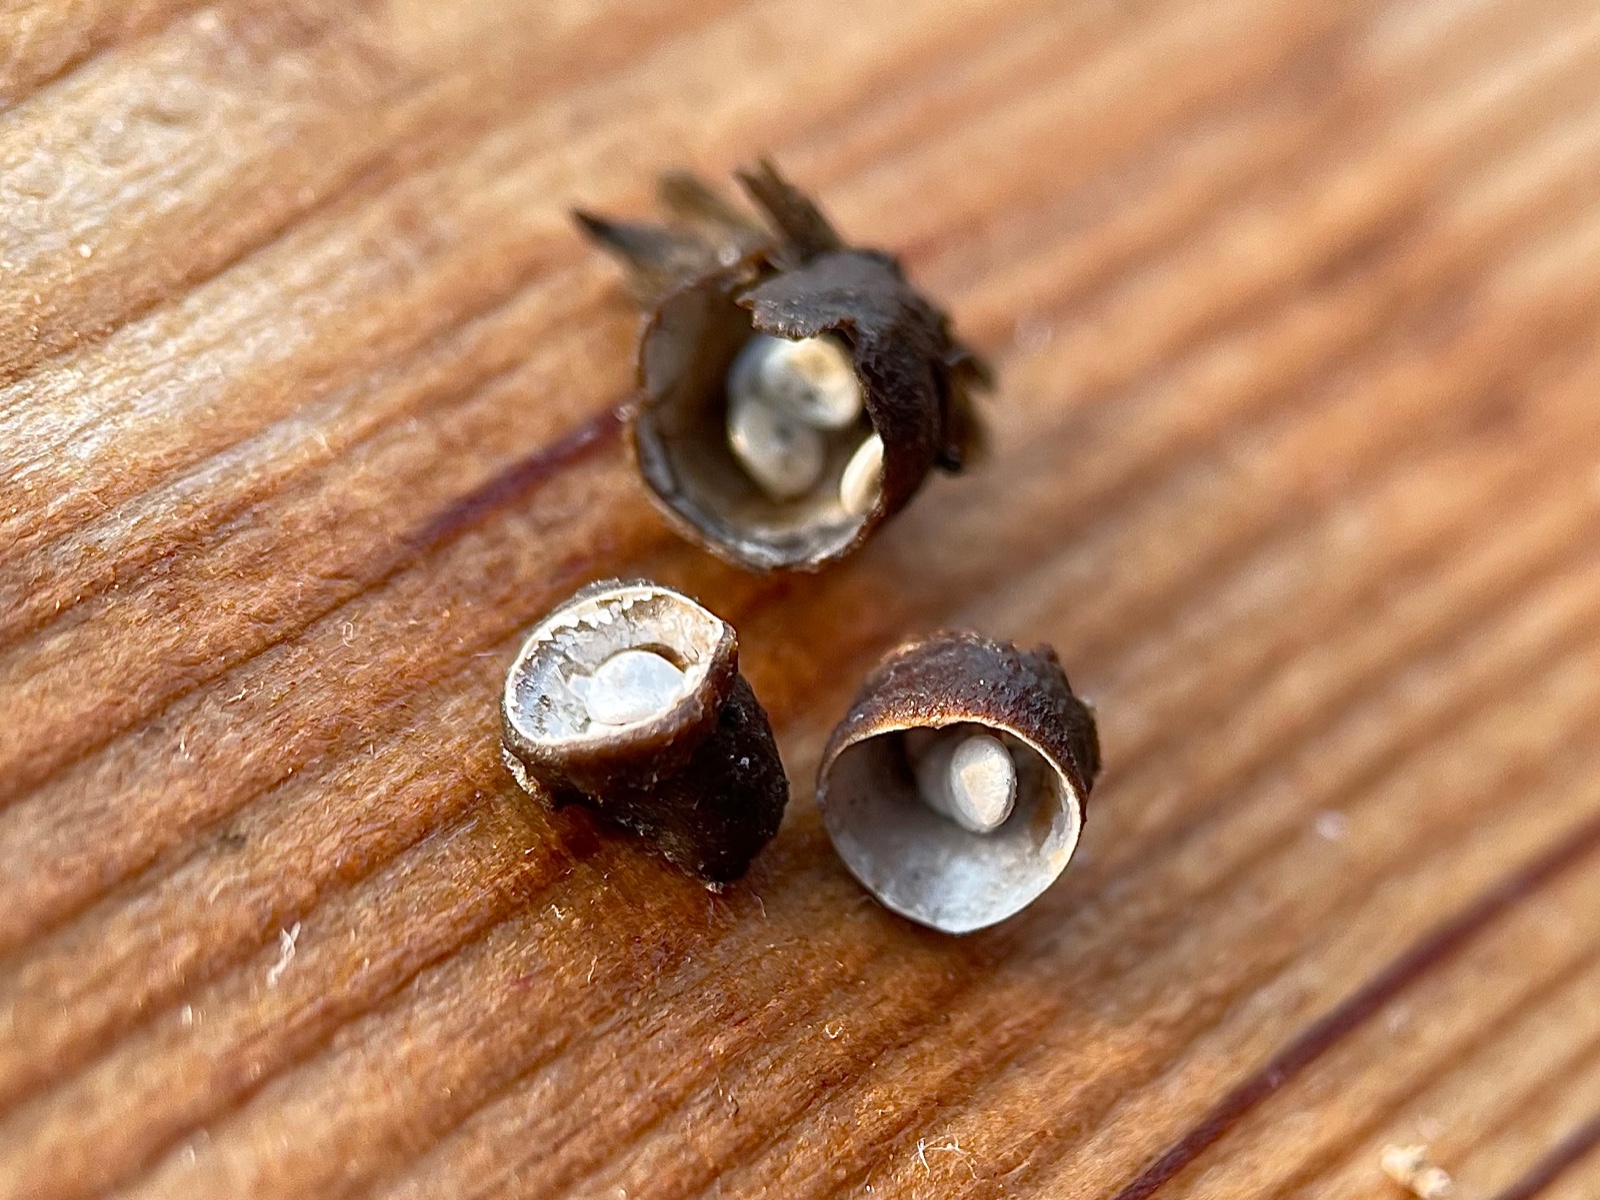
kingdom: Fungi
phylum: Basidiomycota
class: Agaricomycetes
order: Agaricales
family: Nidulariaceae
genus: Crucibulum
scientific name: Crucibulum crucibuliforme
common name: krukkesvamp
